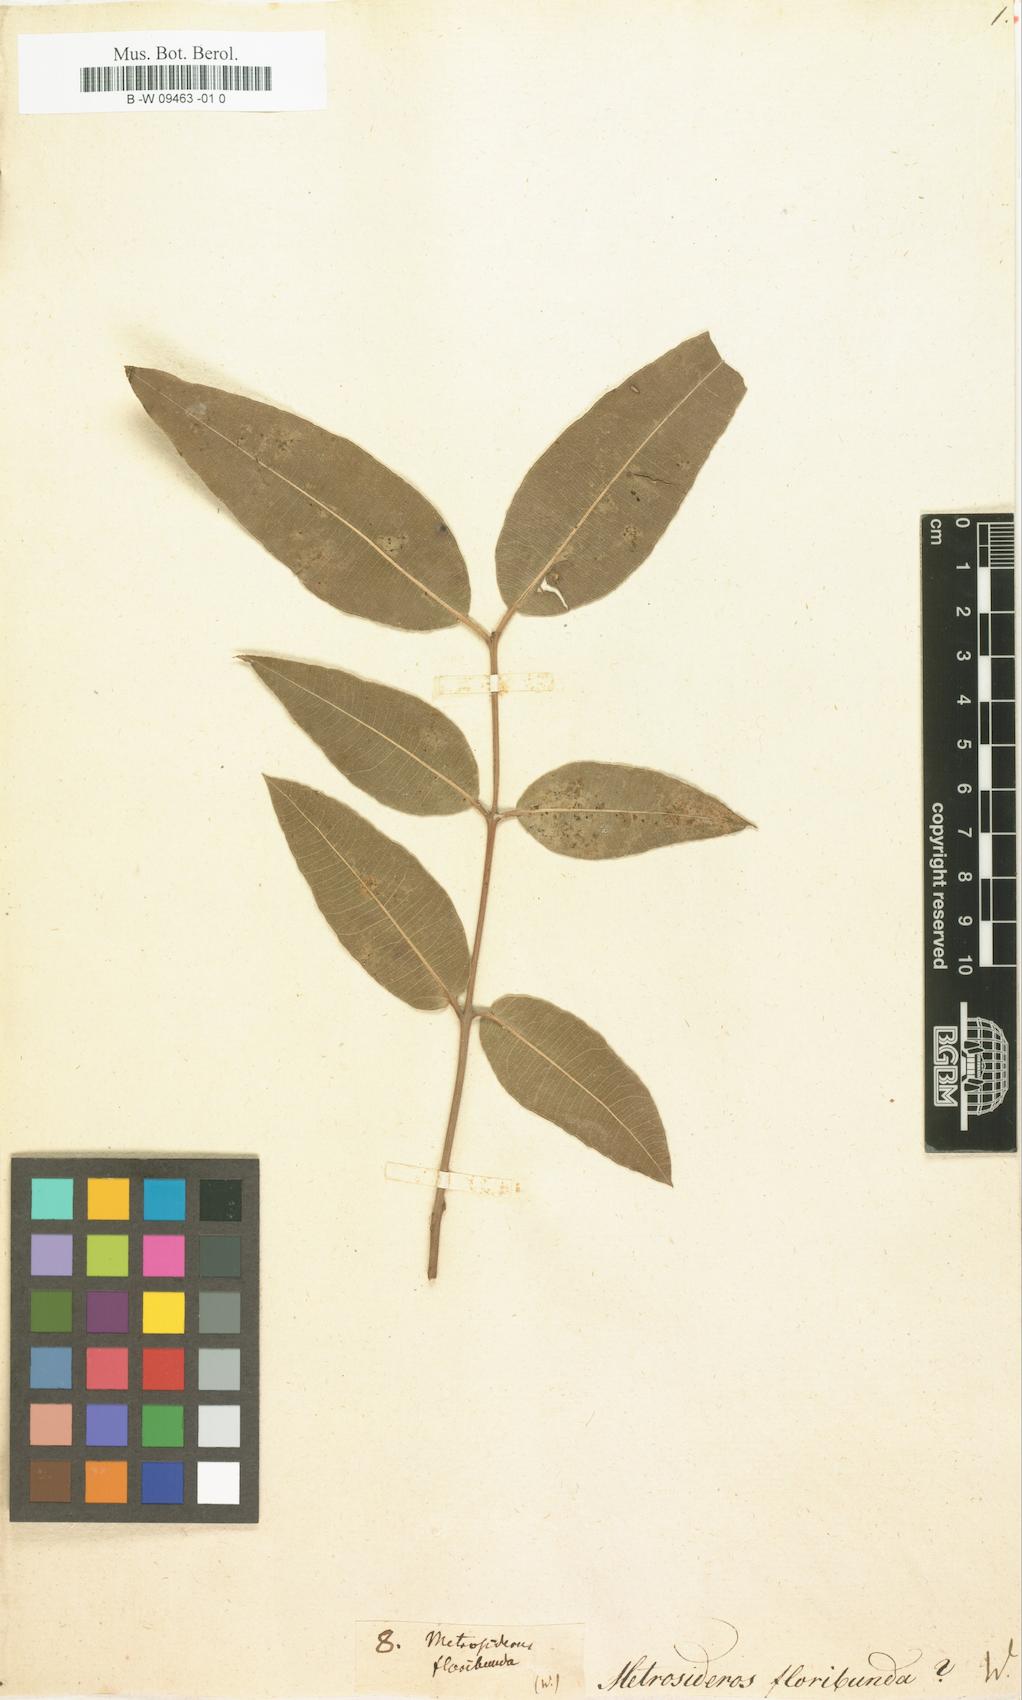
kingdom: Plantae
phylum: Tracheophyta
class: Magnoliopsida
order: Myrtales
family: Myrtaceae
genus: Angophora
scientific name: Angophora floribunda
